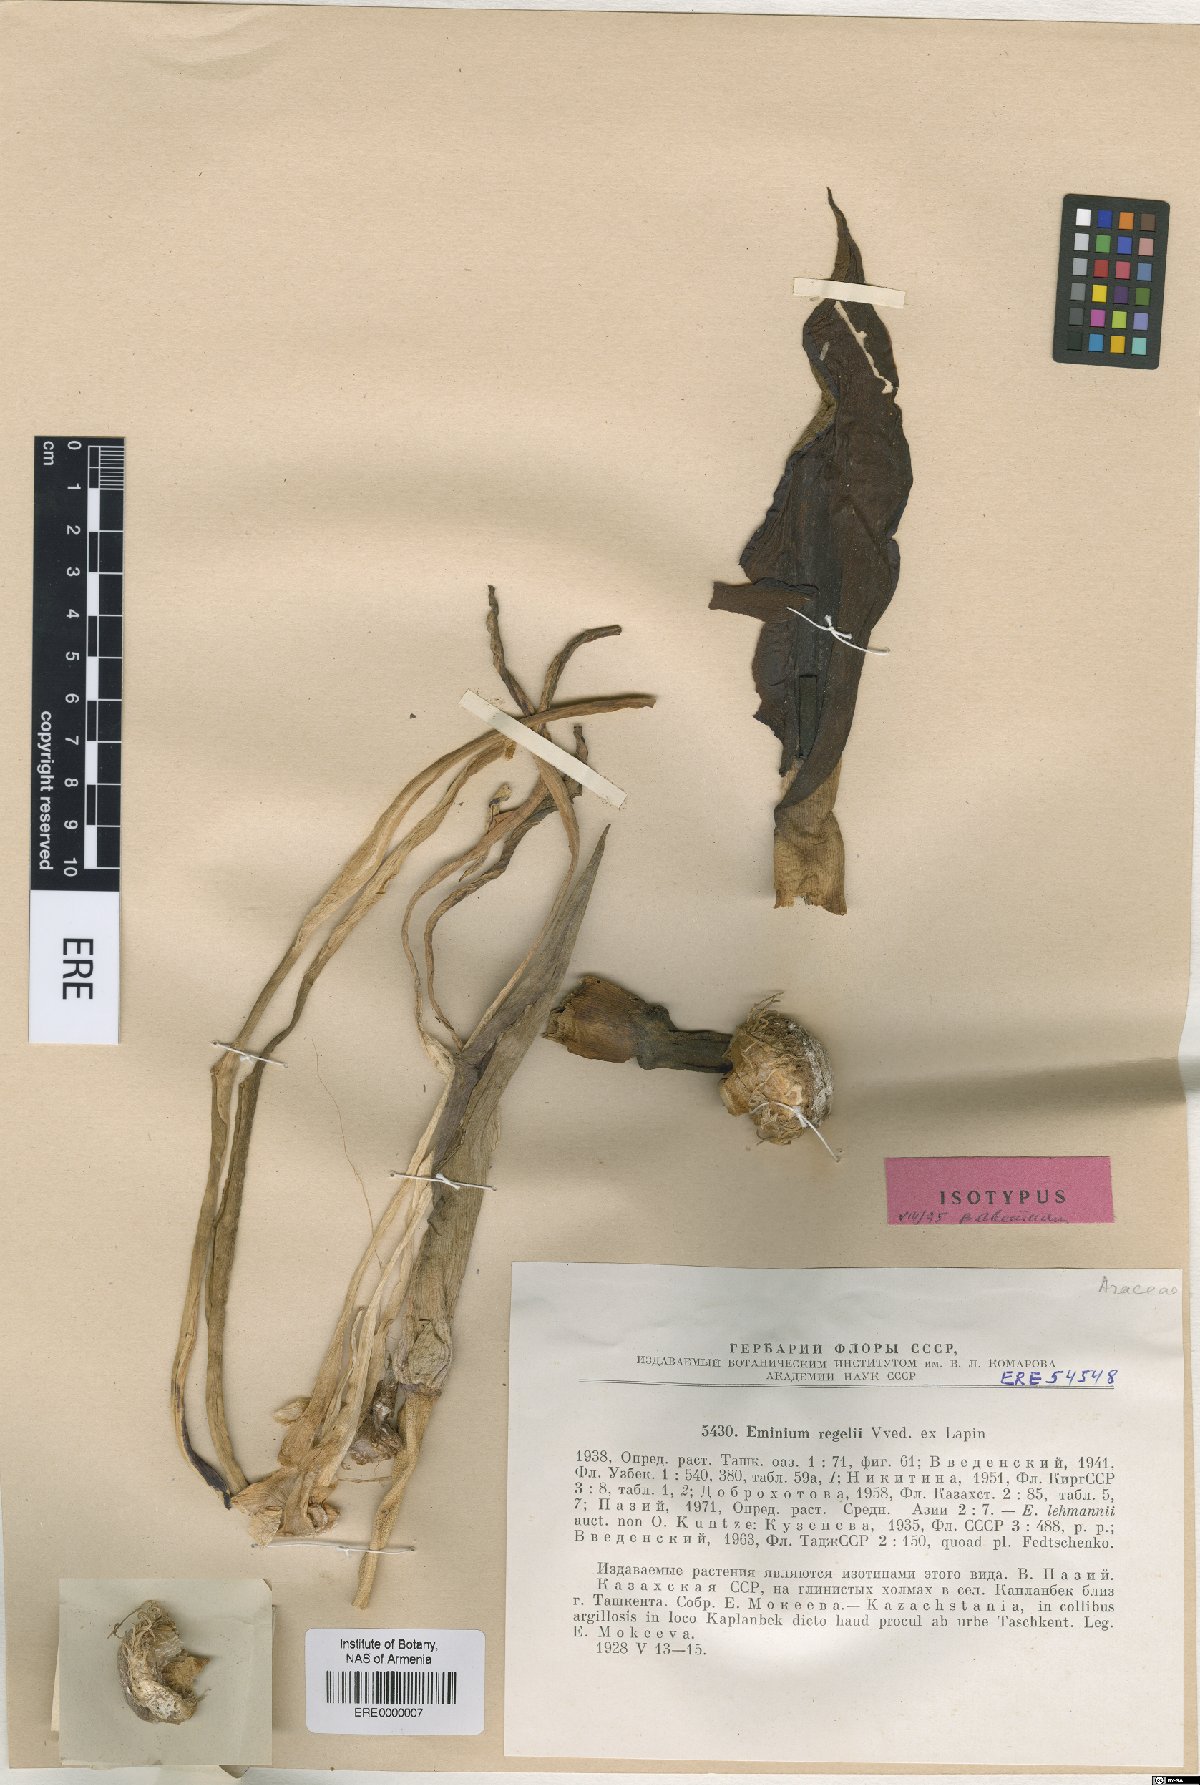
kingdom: Plantae
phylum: Tracheophyta
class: Liliopsida
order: Alismatales
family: Araceae
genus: Eminium
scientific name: Eminium regelii
